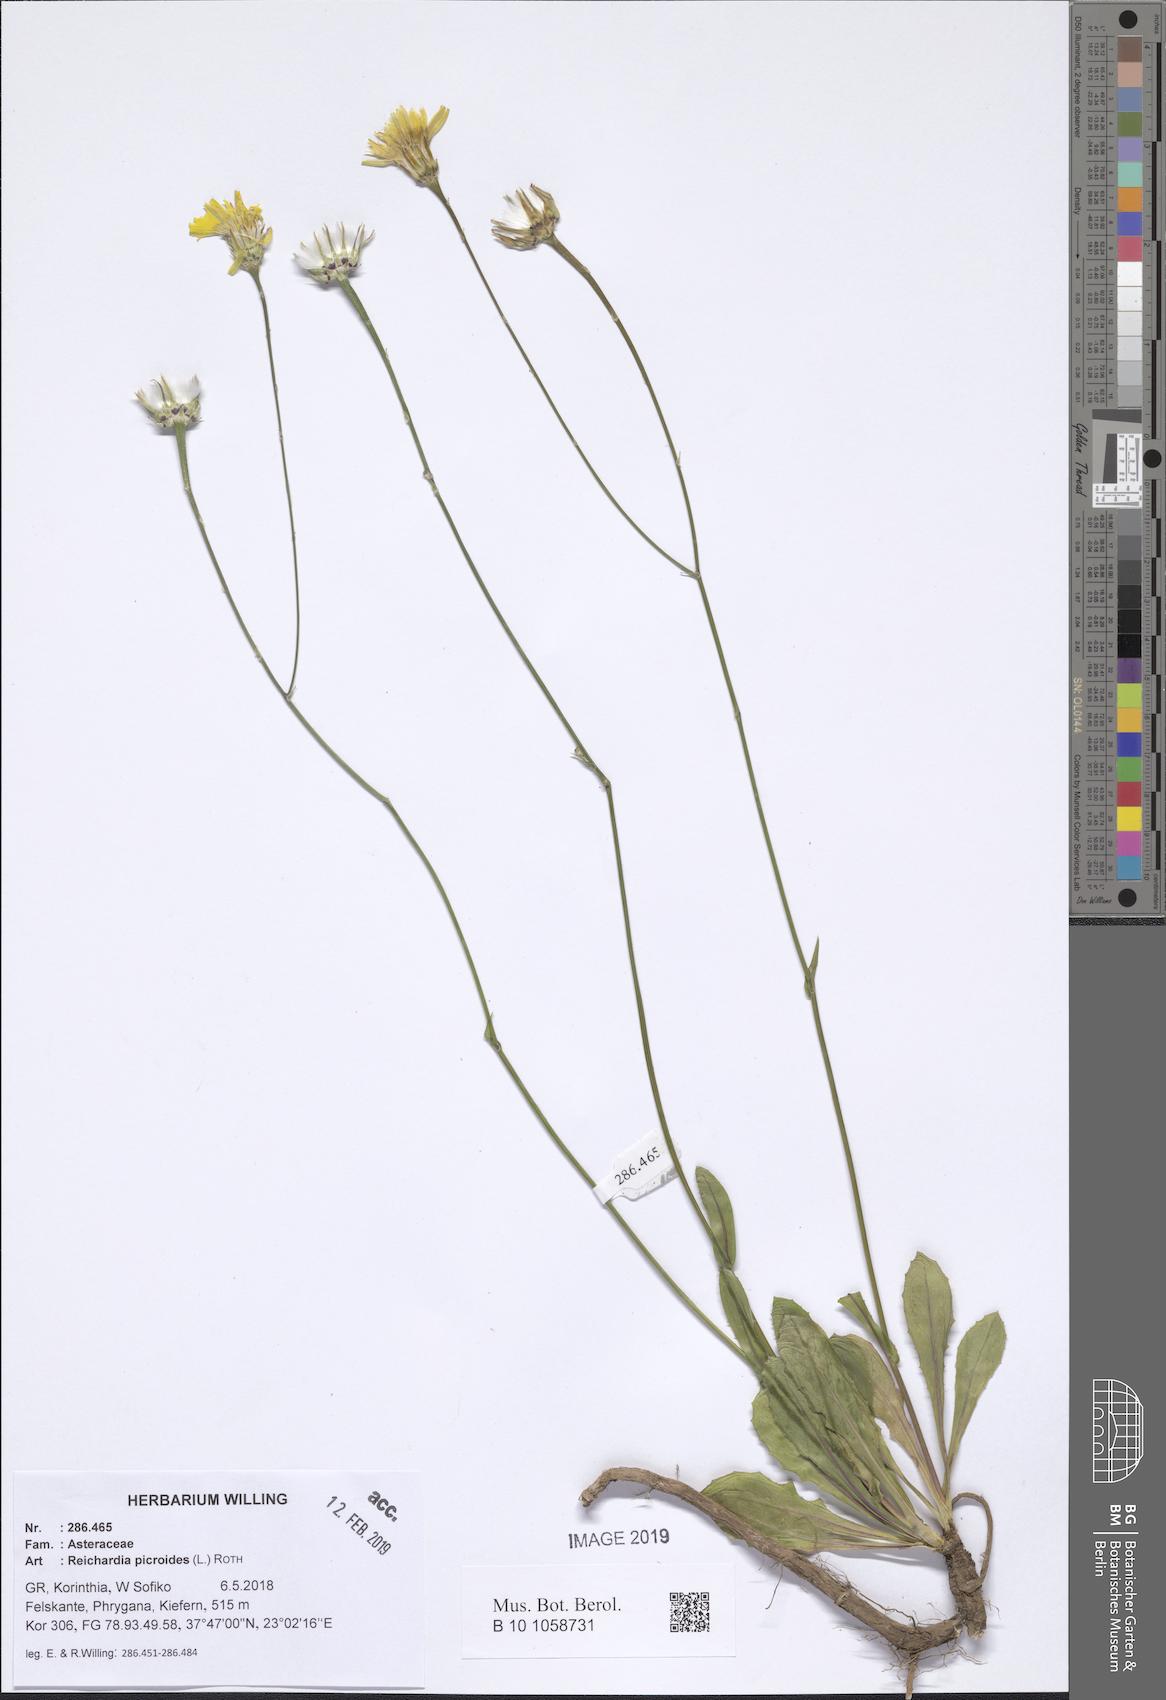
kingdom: Plantae
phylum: Tracheophyta
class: Magnoliopsida
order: Asterales
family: Asteraceae
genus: Reichardia
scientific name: Reichardia picroides
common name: Common brighteyes
